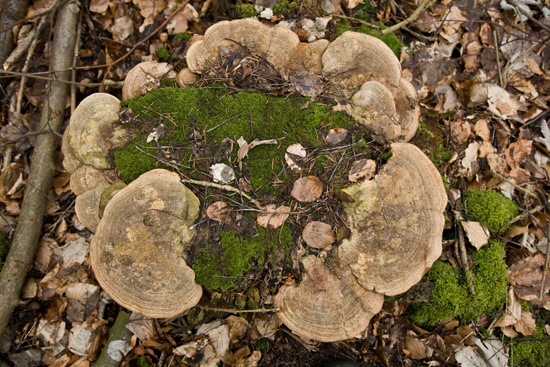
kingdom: Fungi
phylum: Basidiomycota
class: Agaricomycetes
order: Polyporales
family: Fomitopsidaceae
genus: Daedalea
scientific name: Daedalea quercina
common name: ege-labyrintsvamp
